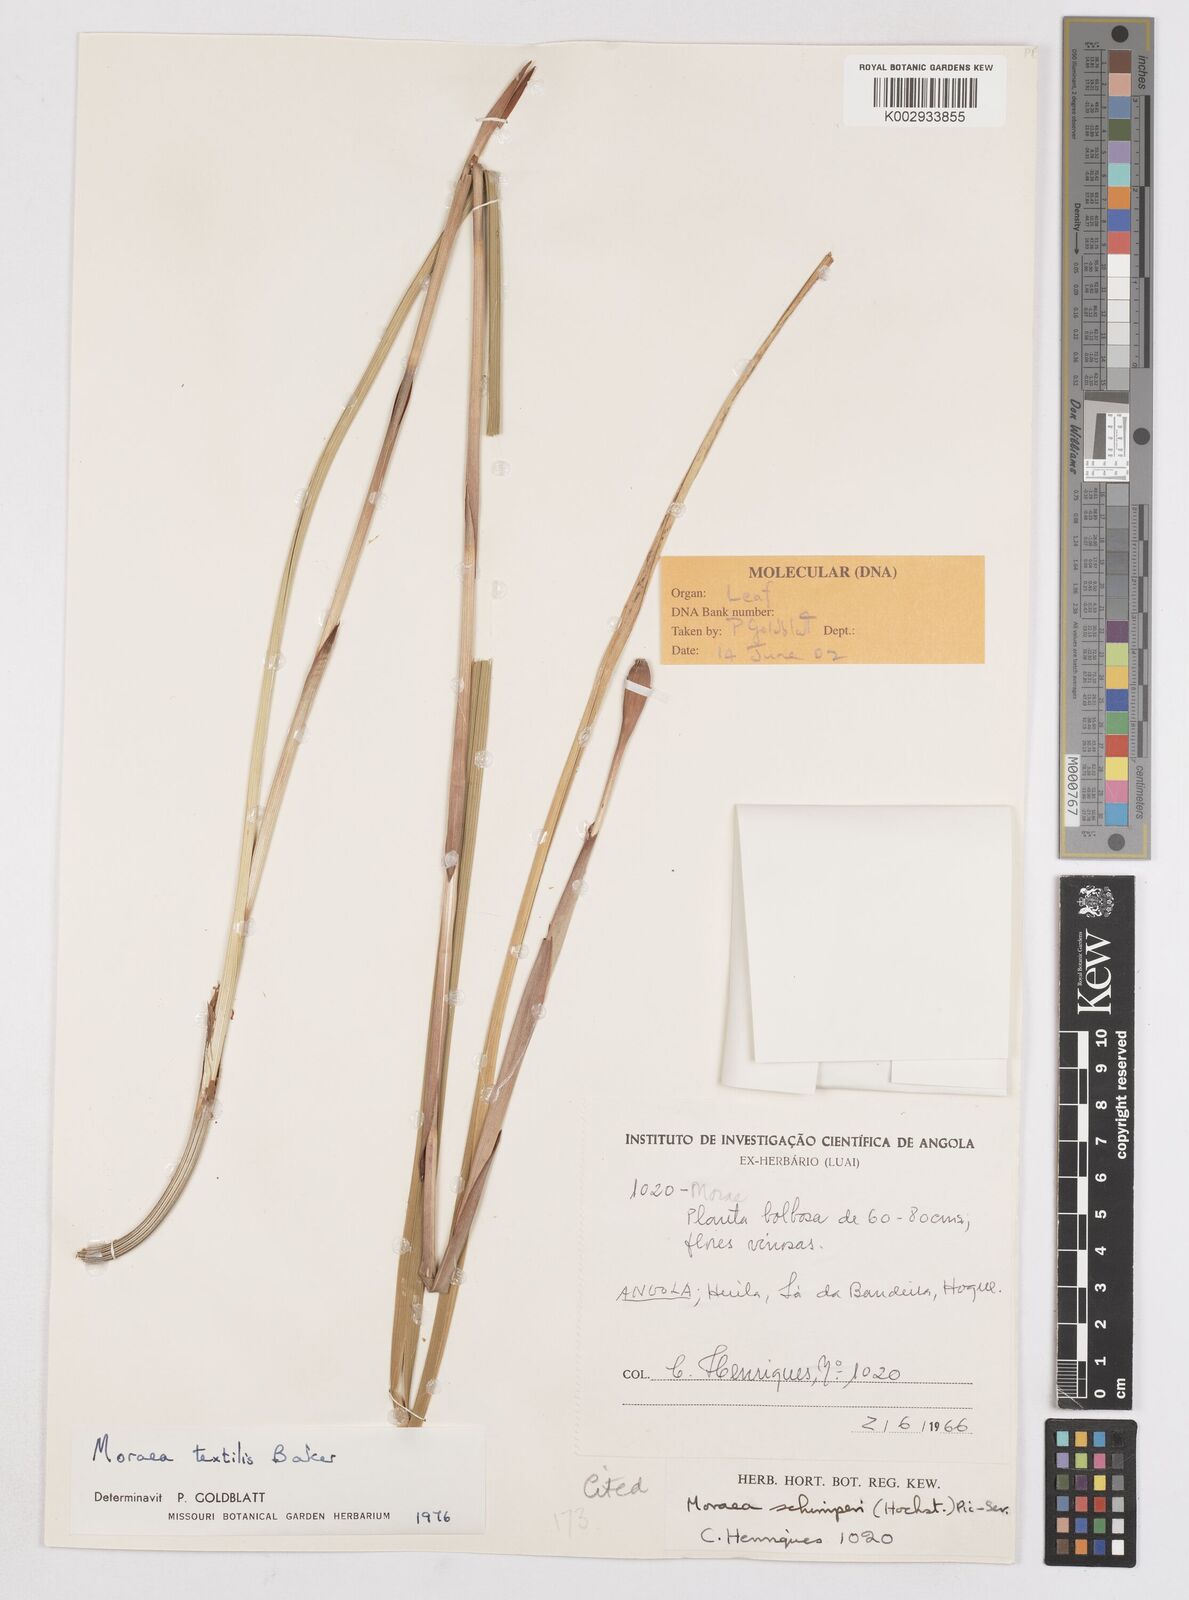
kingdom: Plantae
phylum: Tracheophyta
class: Liliopsida
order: Asparagales
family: Iridaceae
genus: Moraea
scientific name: Moraea textilis
